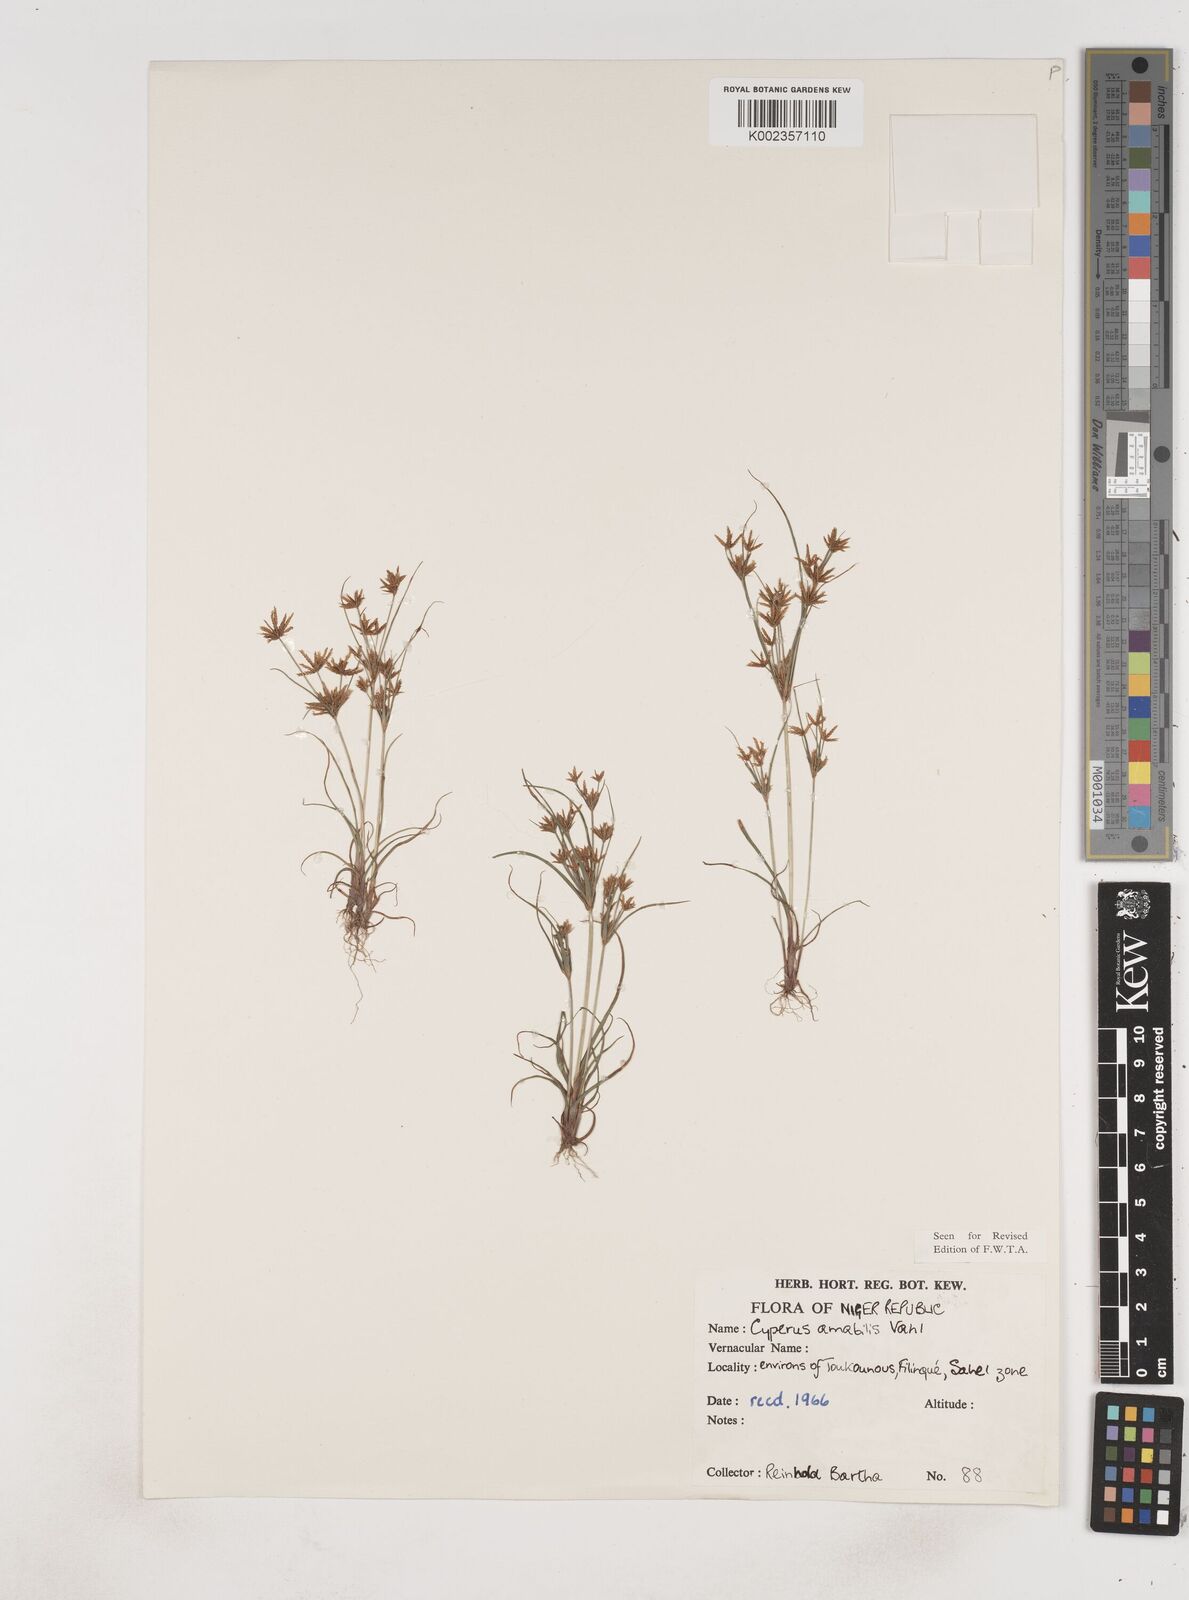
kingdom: Plantae
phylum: Tracheophyta
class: Liliopsida
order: Poales
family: Cyperaceae
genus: Cyperus
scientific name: Cyperus amabilis
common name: Foothill flat sedge
